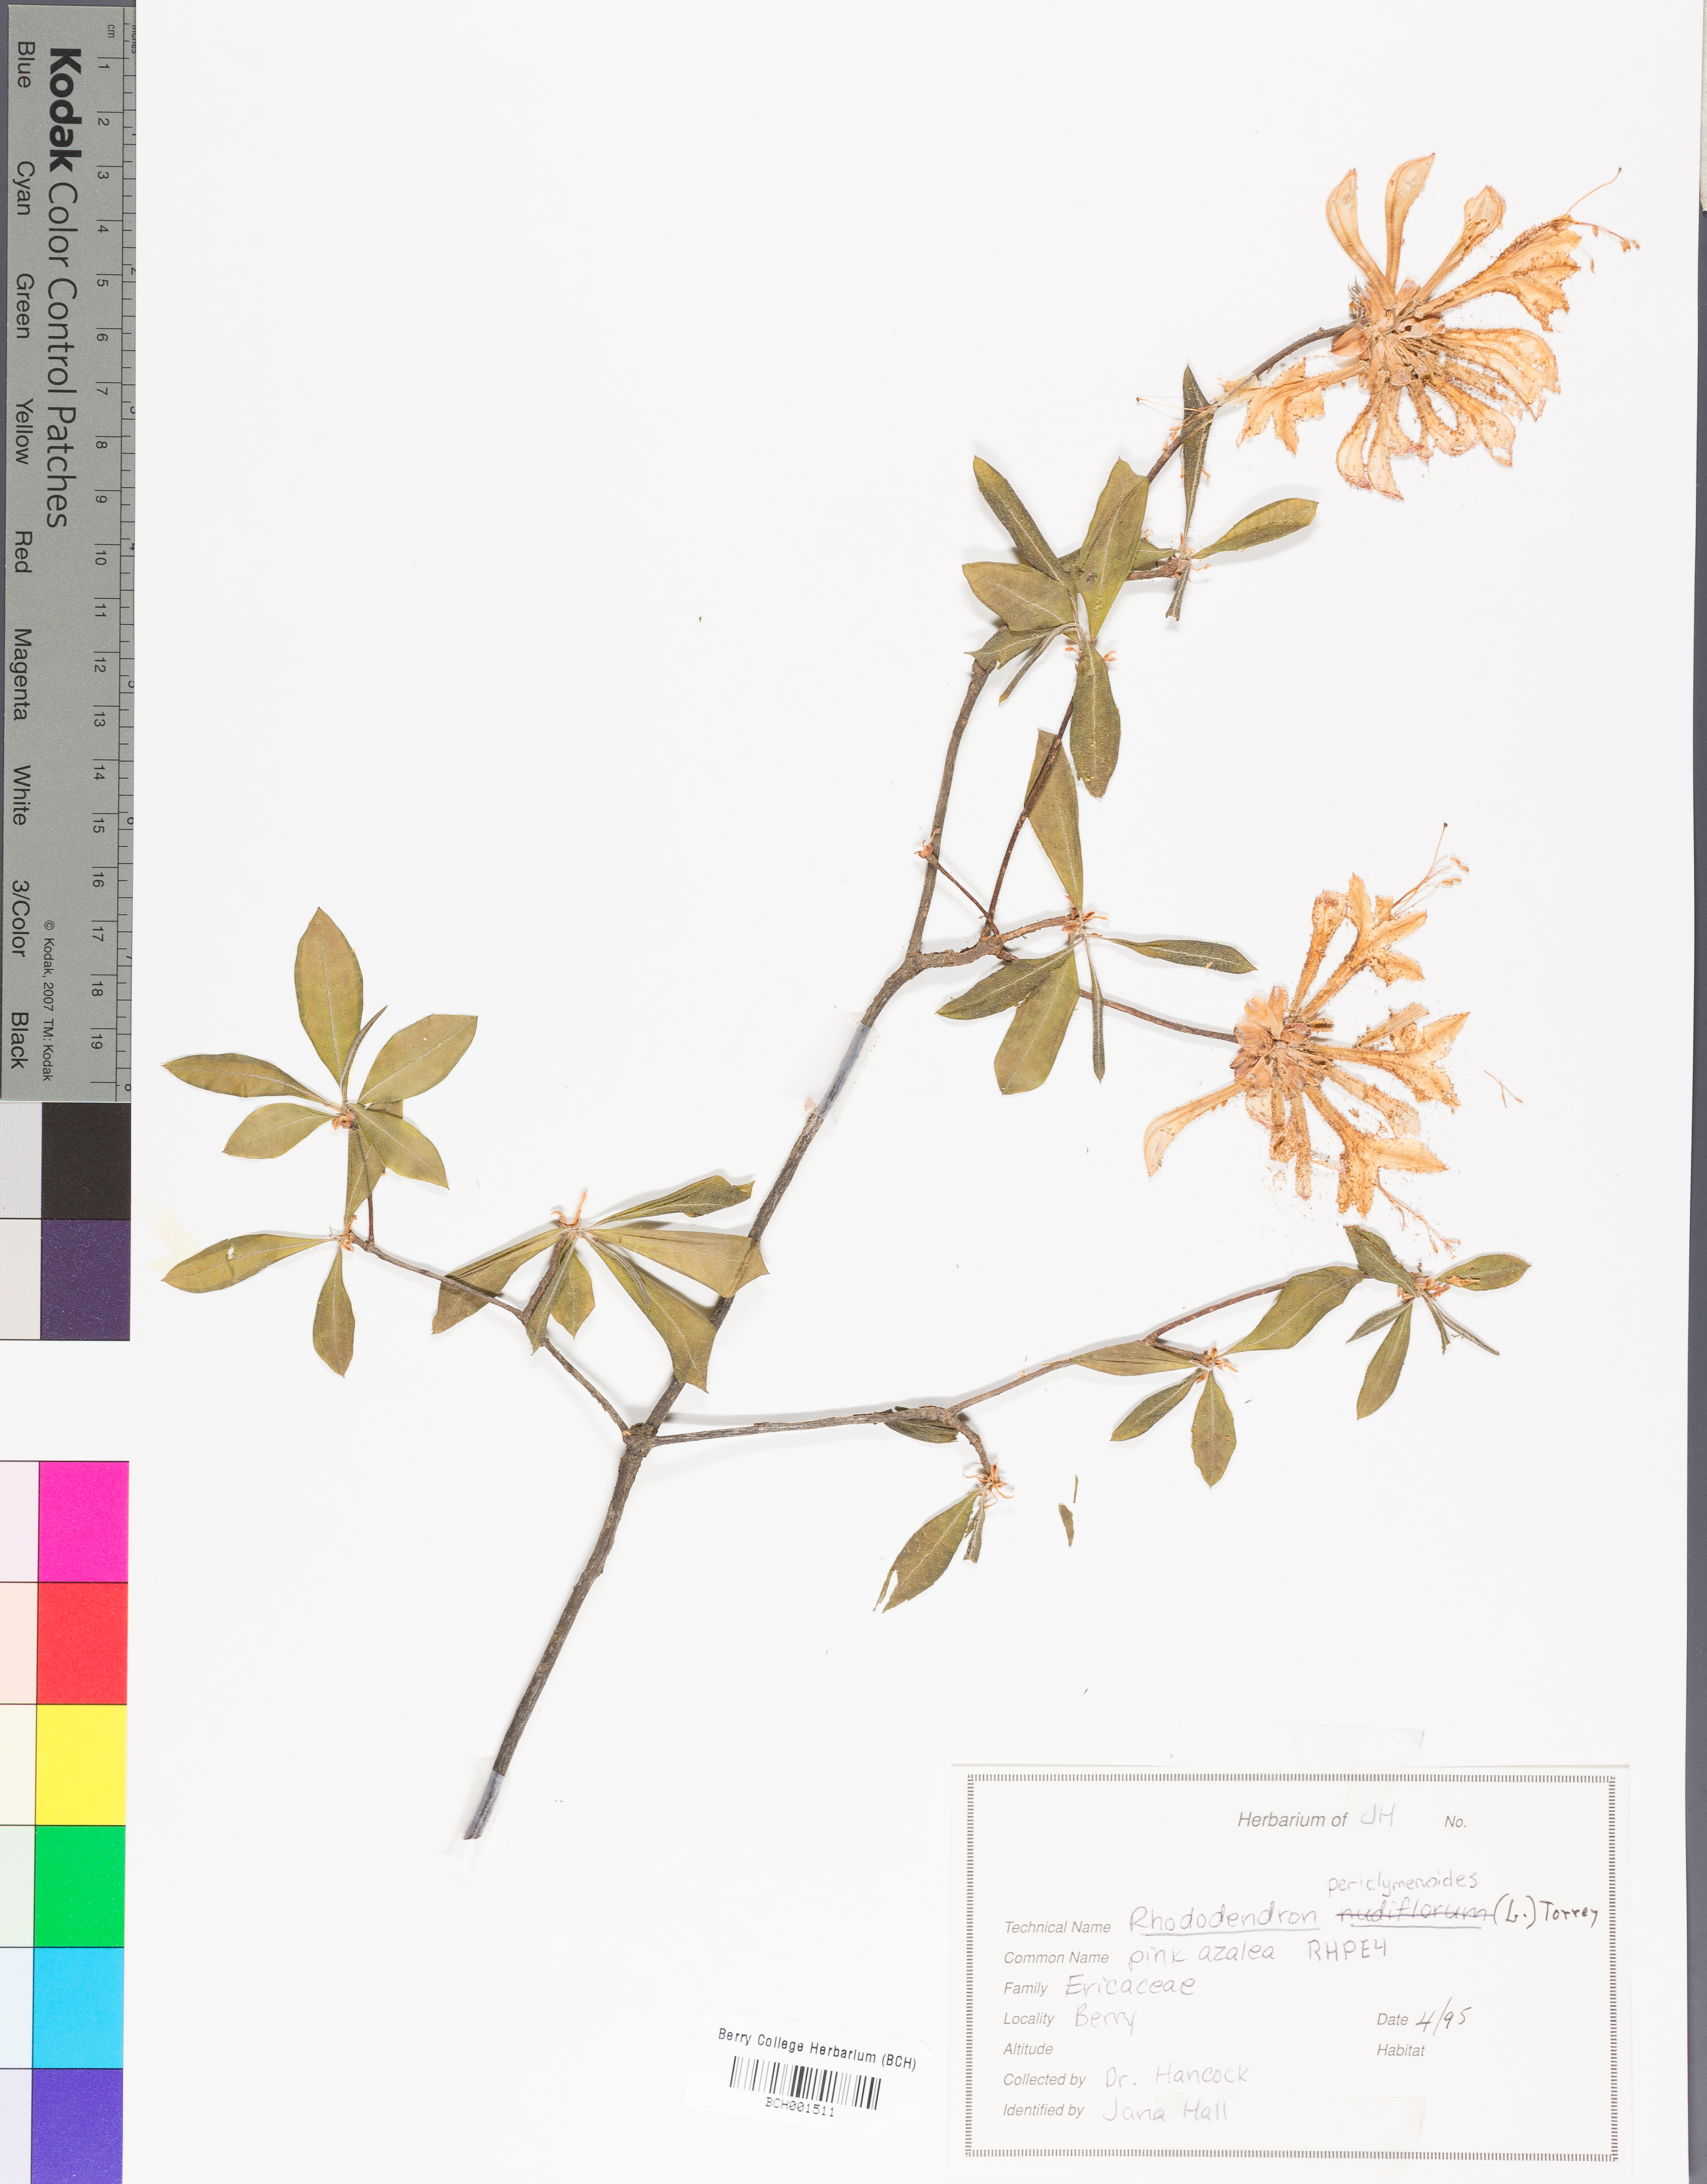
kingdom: Plantae
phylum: Tracheophyta
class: Magnoliopsida
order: Ericales
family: Ericaceae
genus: Rhododendron
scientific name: Rhododendron periclymenoides
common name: Election-pink
